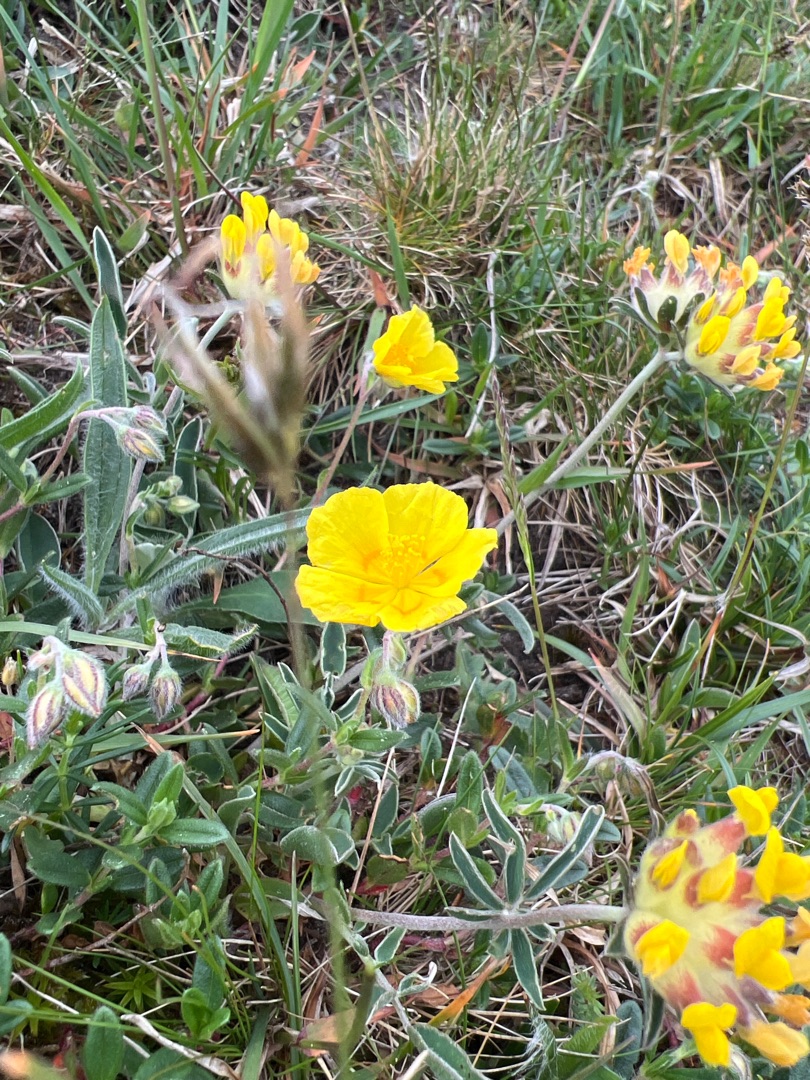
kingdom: Plantae
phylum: Tracheophyta
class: Magnoliopsida
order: Malvales
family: Cistaceae
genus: Helianthemum
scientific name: Helianthemum nummularium
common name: Bakke-soløje
